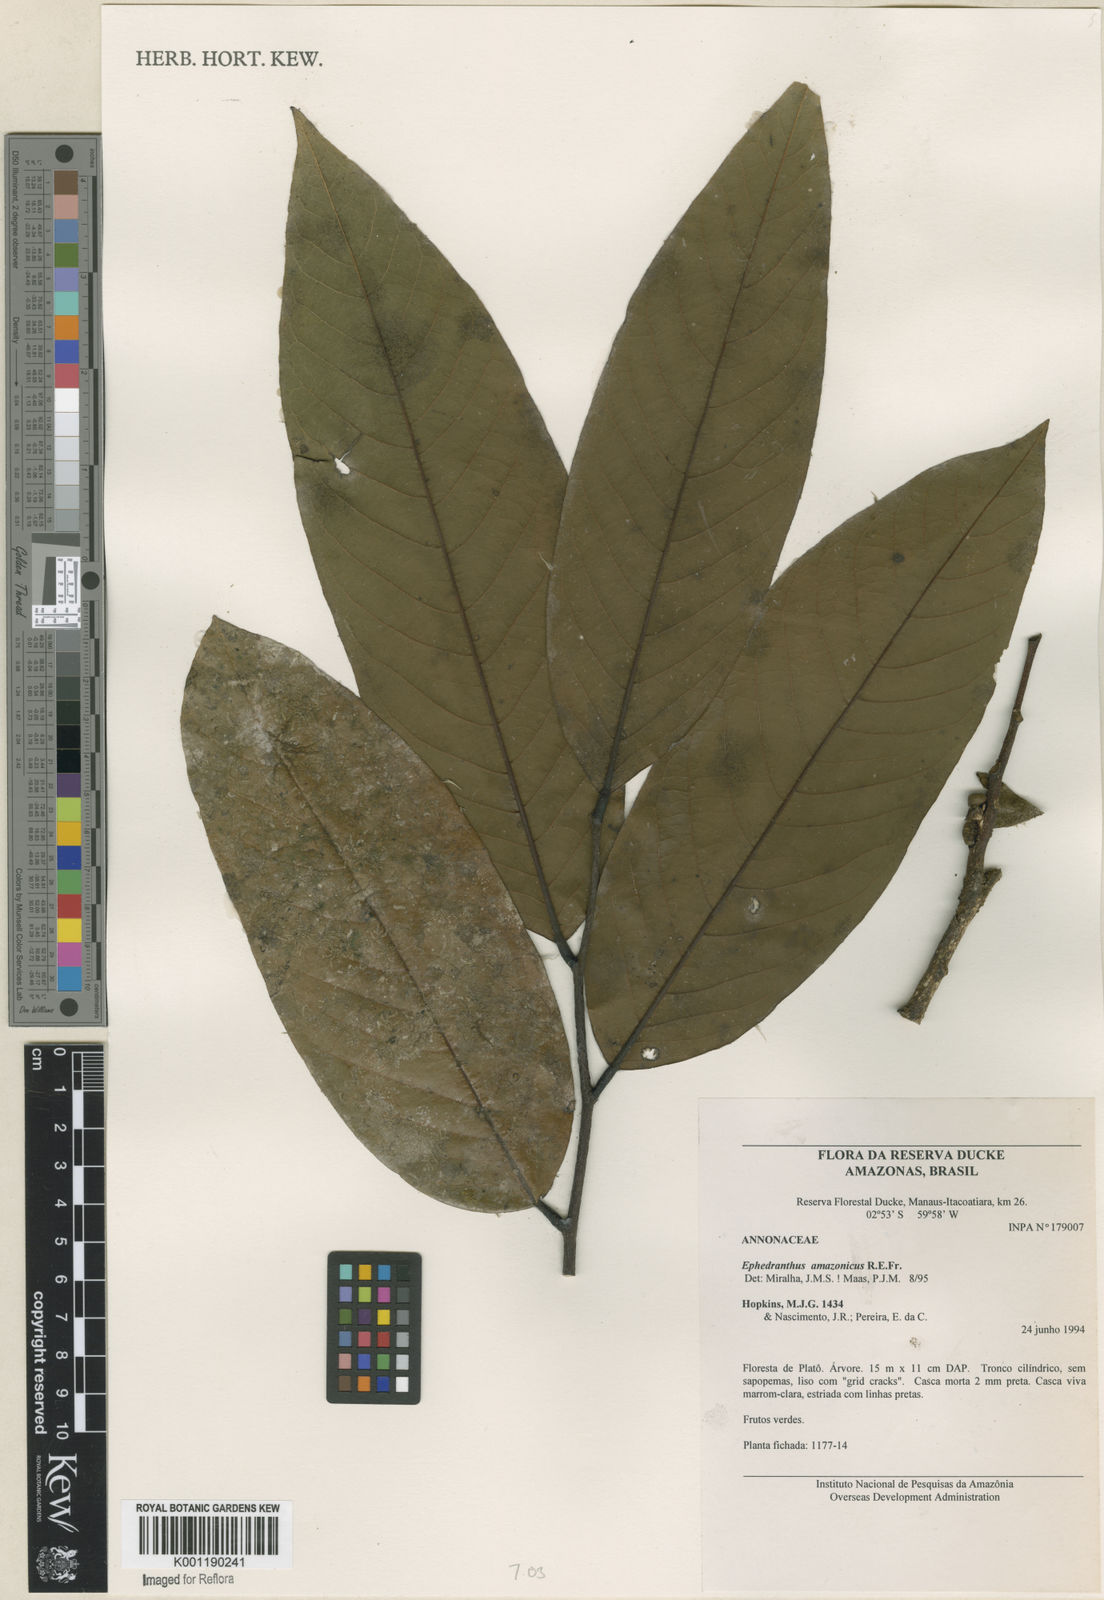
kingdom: Plantae
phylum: Tracheophyta
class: Magnoliopsida
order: Magnoliales
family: Annonaceae
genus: Ephedranthus
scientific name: Ephedranthus amazonicus
